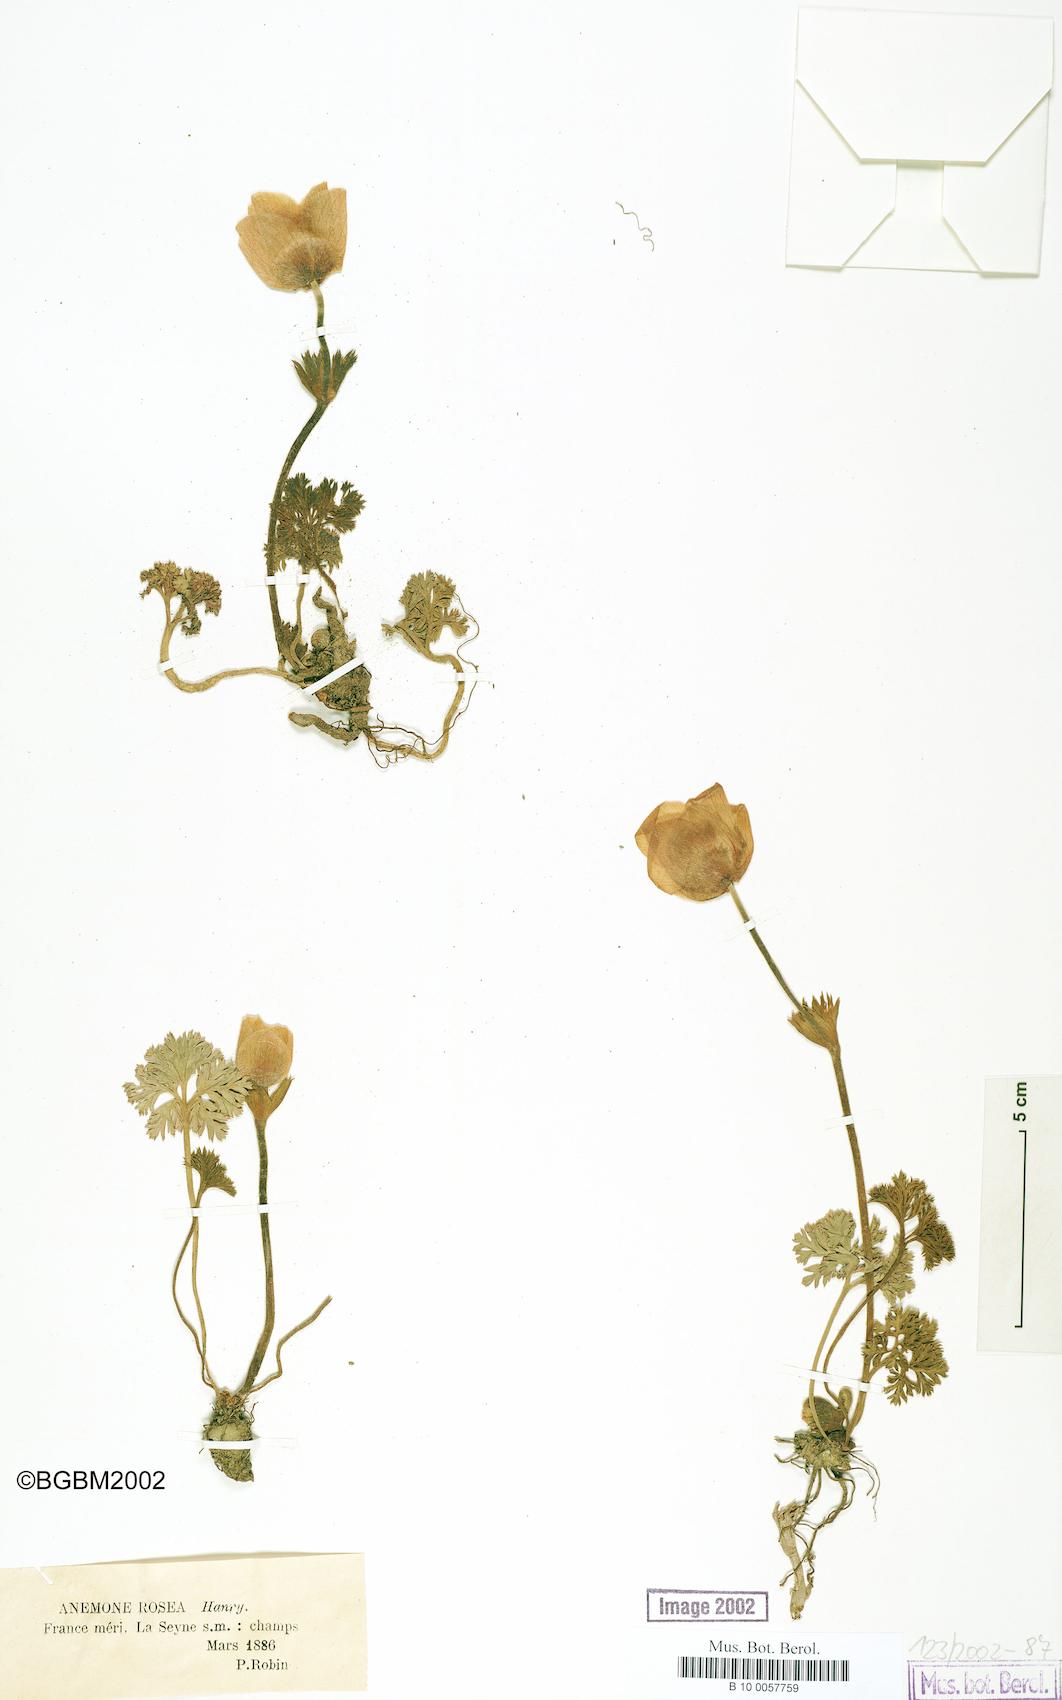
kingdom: Plantae
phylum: Tracheophyta
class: Magnoliopsida
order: Ranunculales
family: Ranunculaceae
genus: Anemone
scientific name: Anemone rosea
